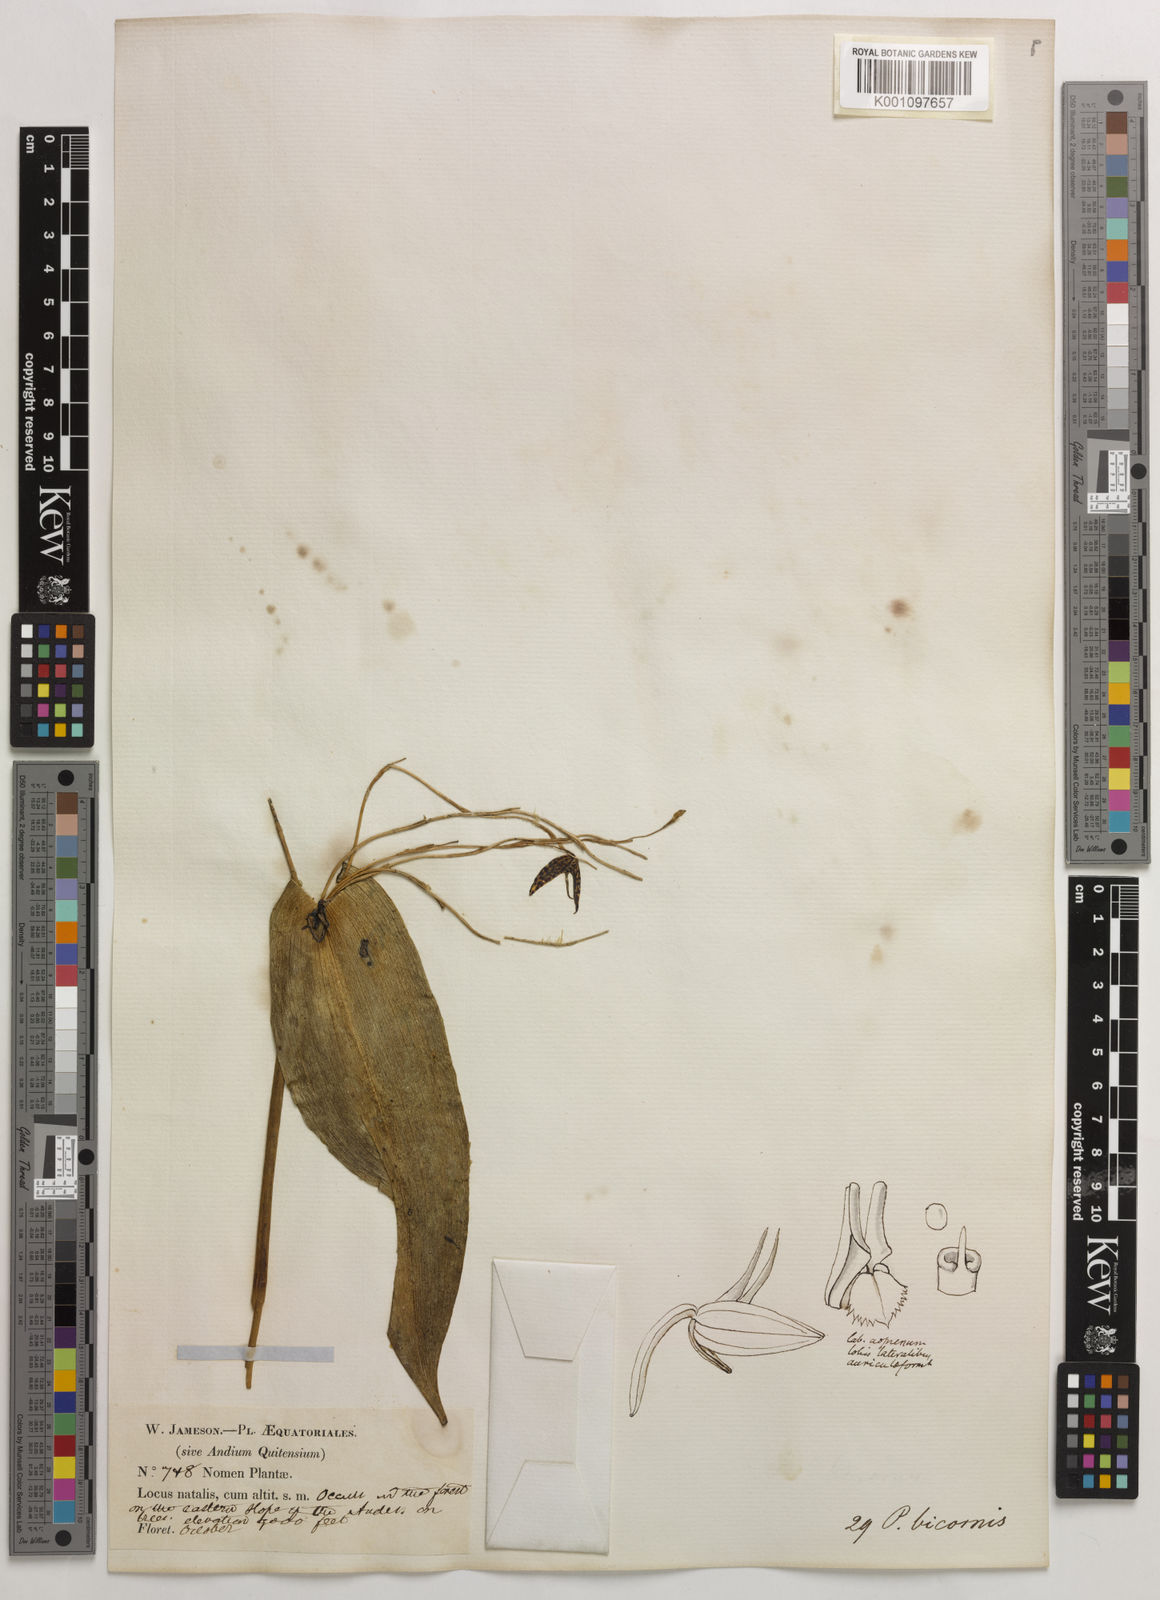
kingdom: Plantae
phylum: Tracheophyta
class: Liliopsida
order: Asparagales
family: Orchidaceae
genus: Pleurothallis
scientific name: Pleurothallis bicornis
